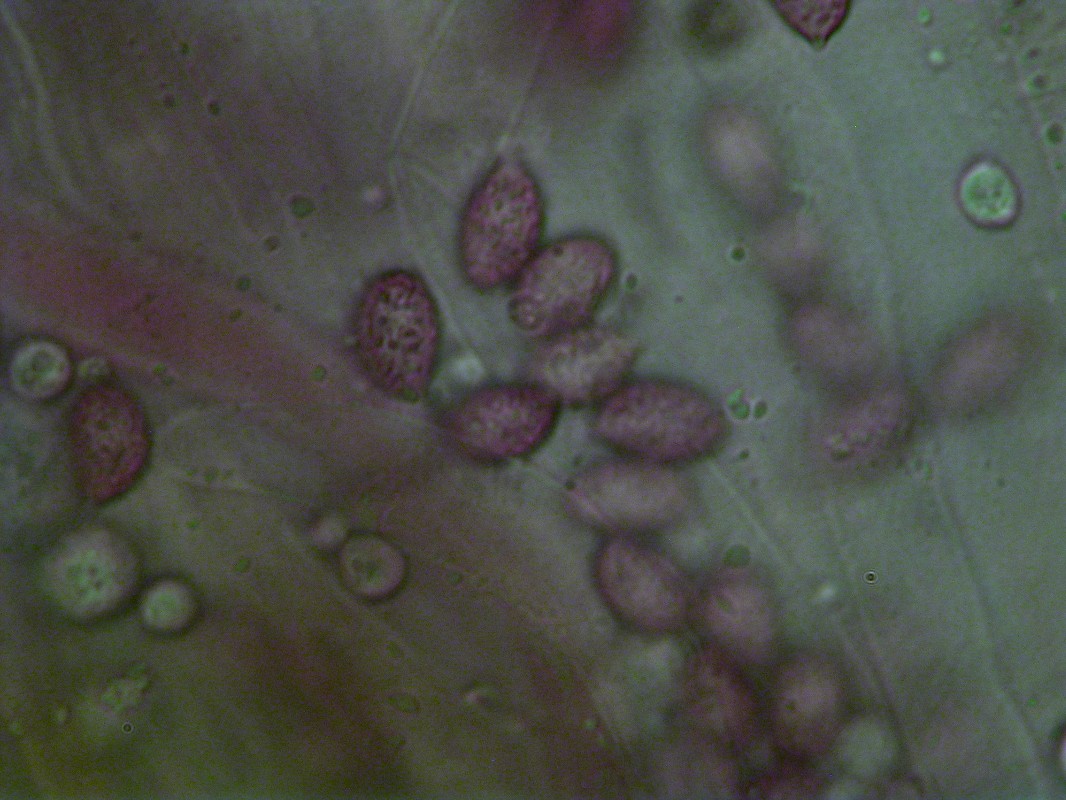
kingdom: Fungi
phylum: Basidiomycota
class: Agaricomycetes
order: Agaricales
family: Cortinariaceae
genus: Cortinarius
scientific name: Cortinarius sanguineus
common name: blodrød slørhat
